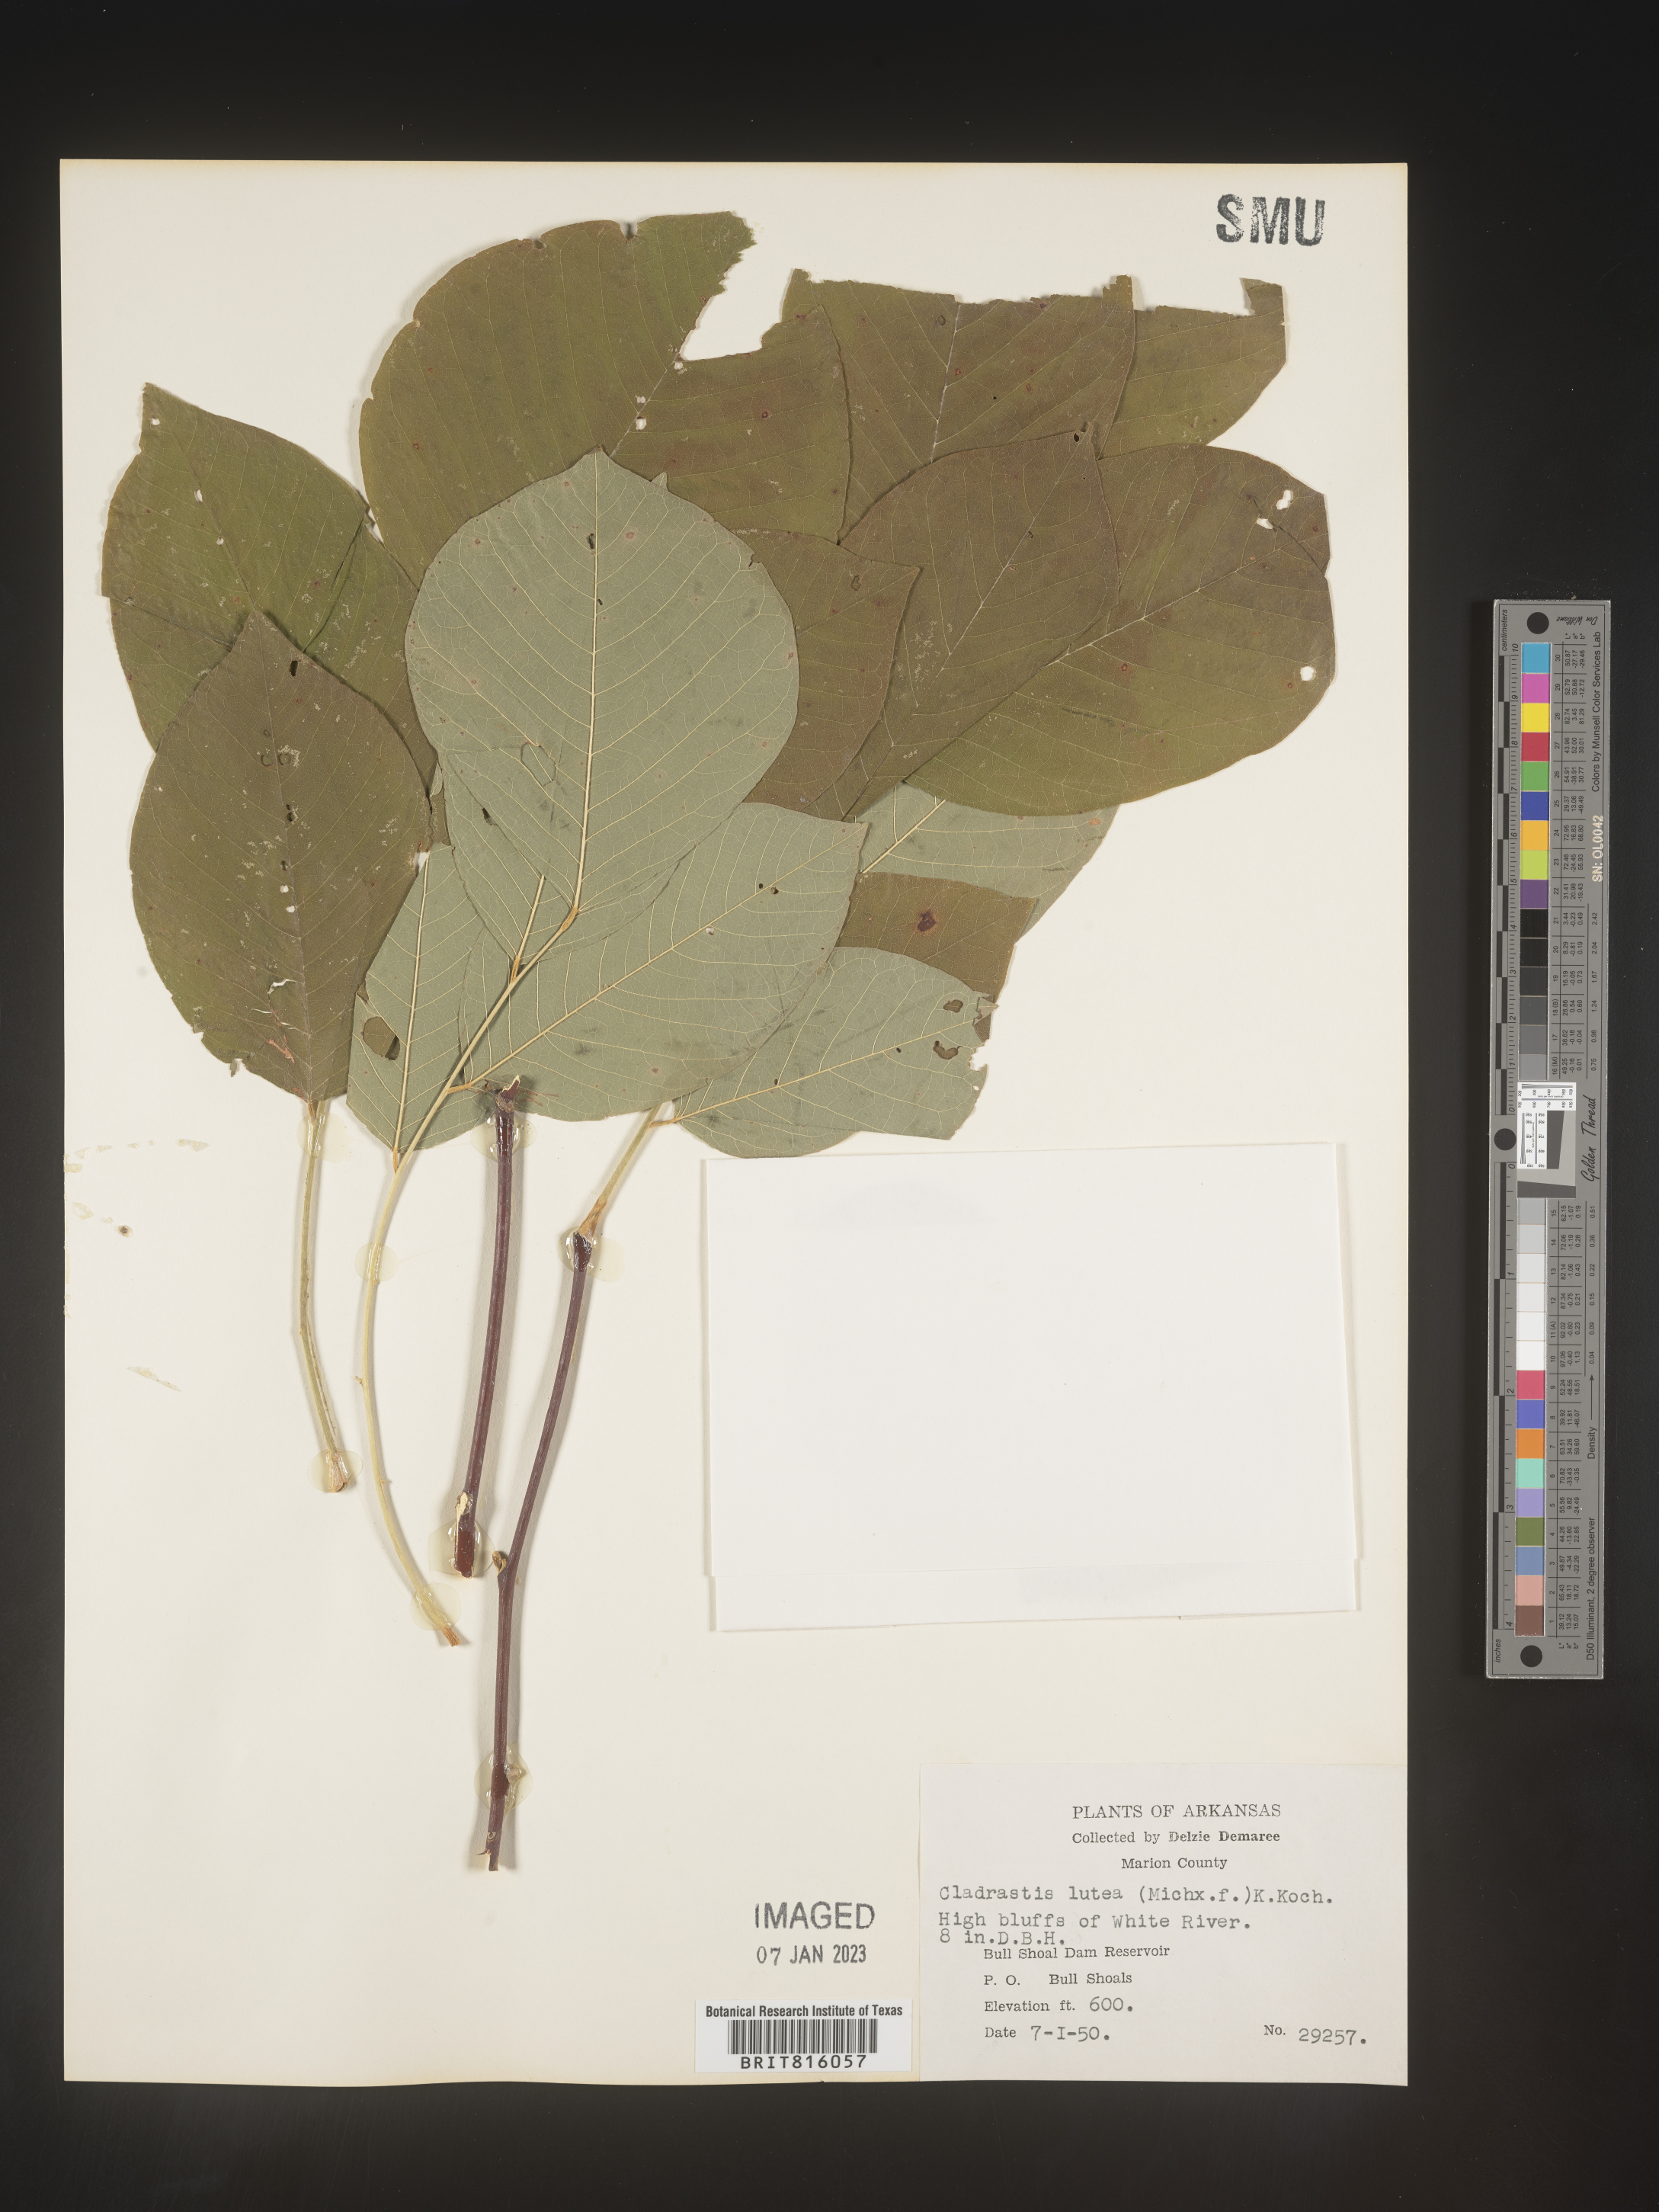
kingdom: Plantae
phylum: Tracheophyta
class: Magnoliopsida
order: Fabales
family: Fabaceae
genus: Cladrastis
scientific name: Cladrastis kentukea
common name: Kentucky yellow-wood
